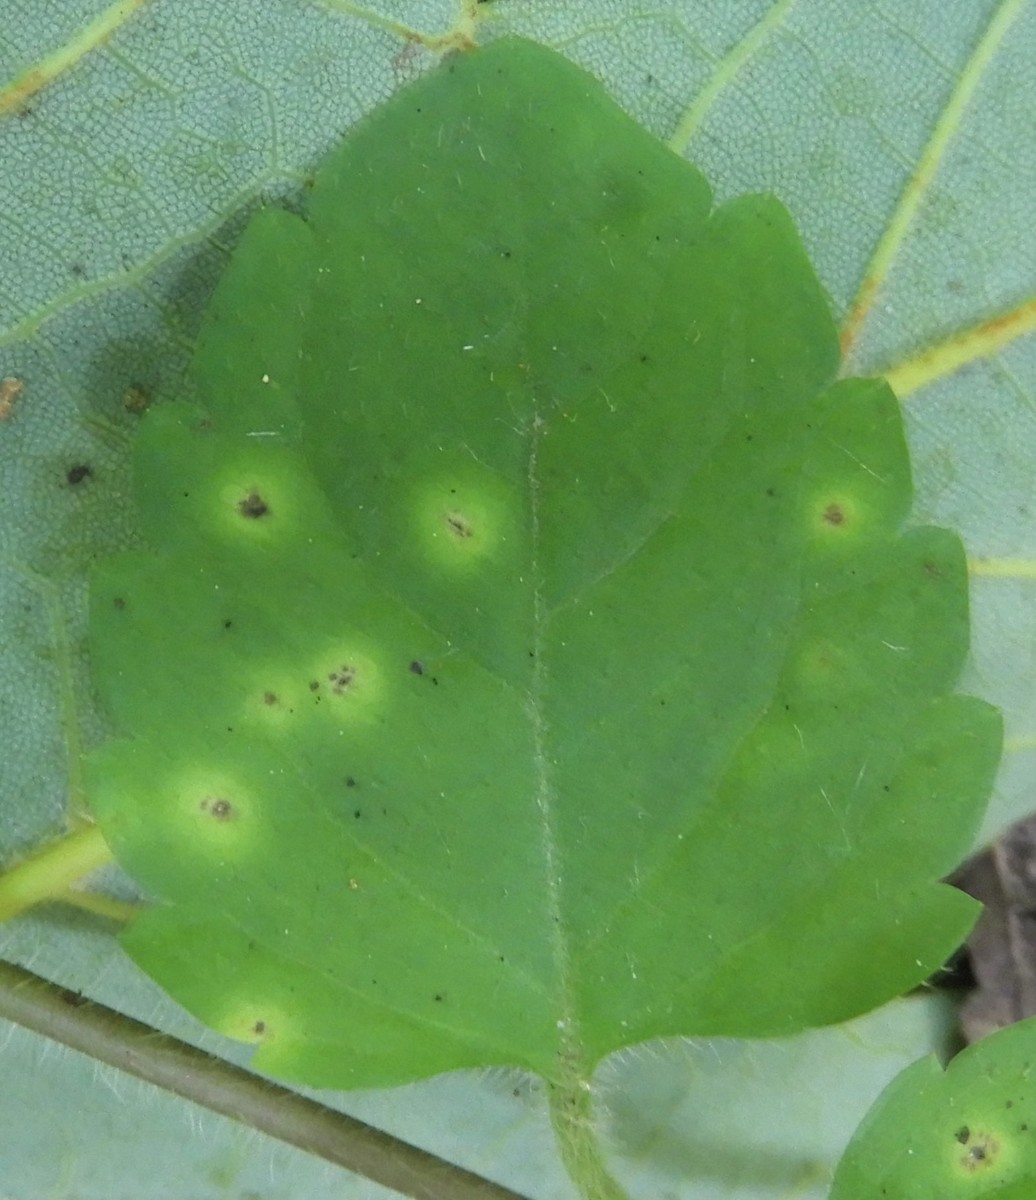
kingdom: Fungi
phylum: Basidiomycota
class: Pucciniomycetes
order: Pucciniales
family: Pucciniaceae
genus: Puccinia
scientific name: Puccinia
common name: tvecellerust
